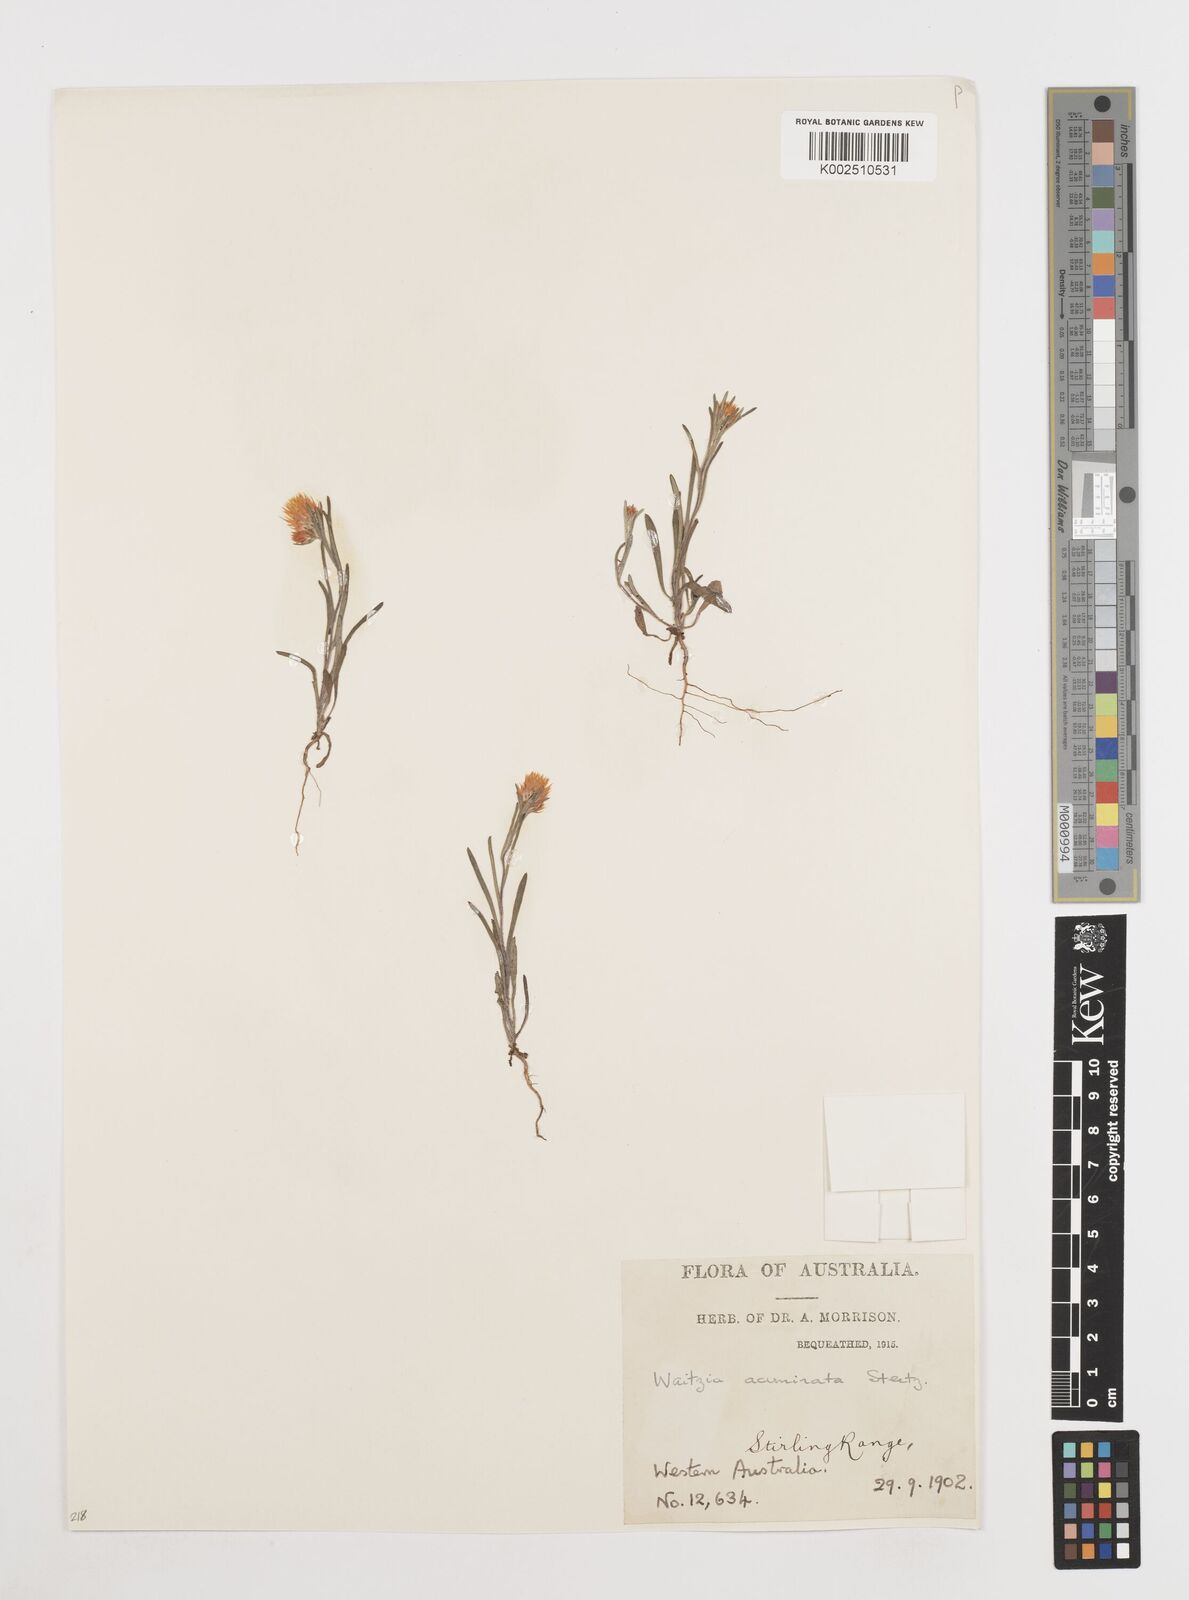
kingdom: Plantae
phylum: Tracheophyta
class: Magnoliopsida
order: Asterales
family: Asteraceae
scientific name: Asteraceae
